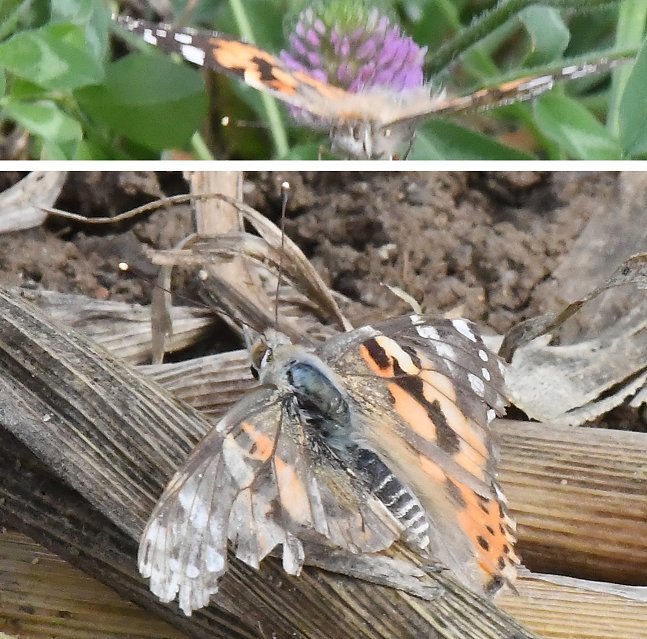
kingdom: Animalia
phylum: Arthropoda
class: Insecta
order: Lepidoptera
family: Nymphalidae
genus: Vanessa
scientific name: Vanessa cardui
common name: Painted Lady
